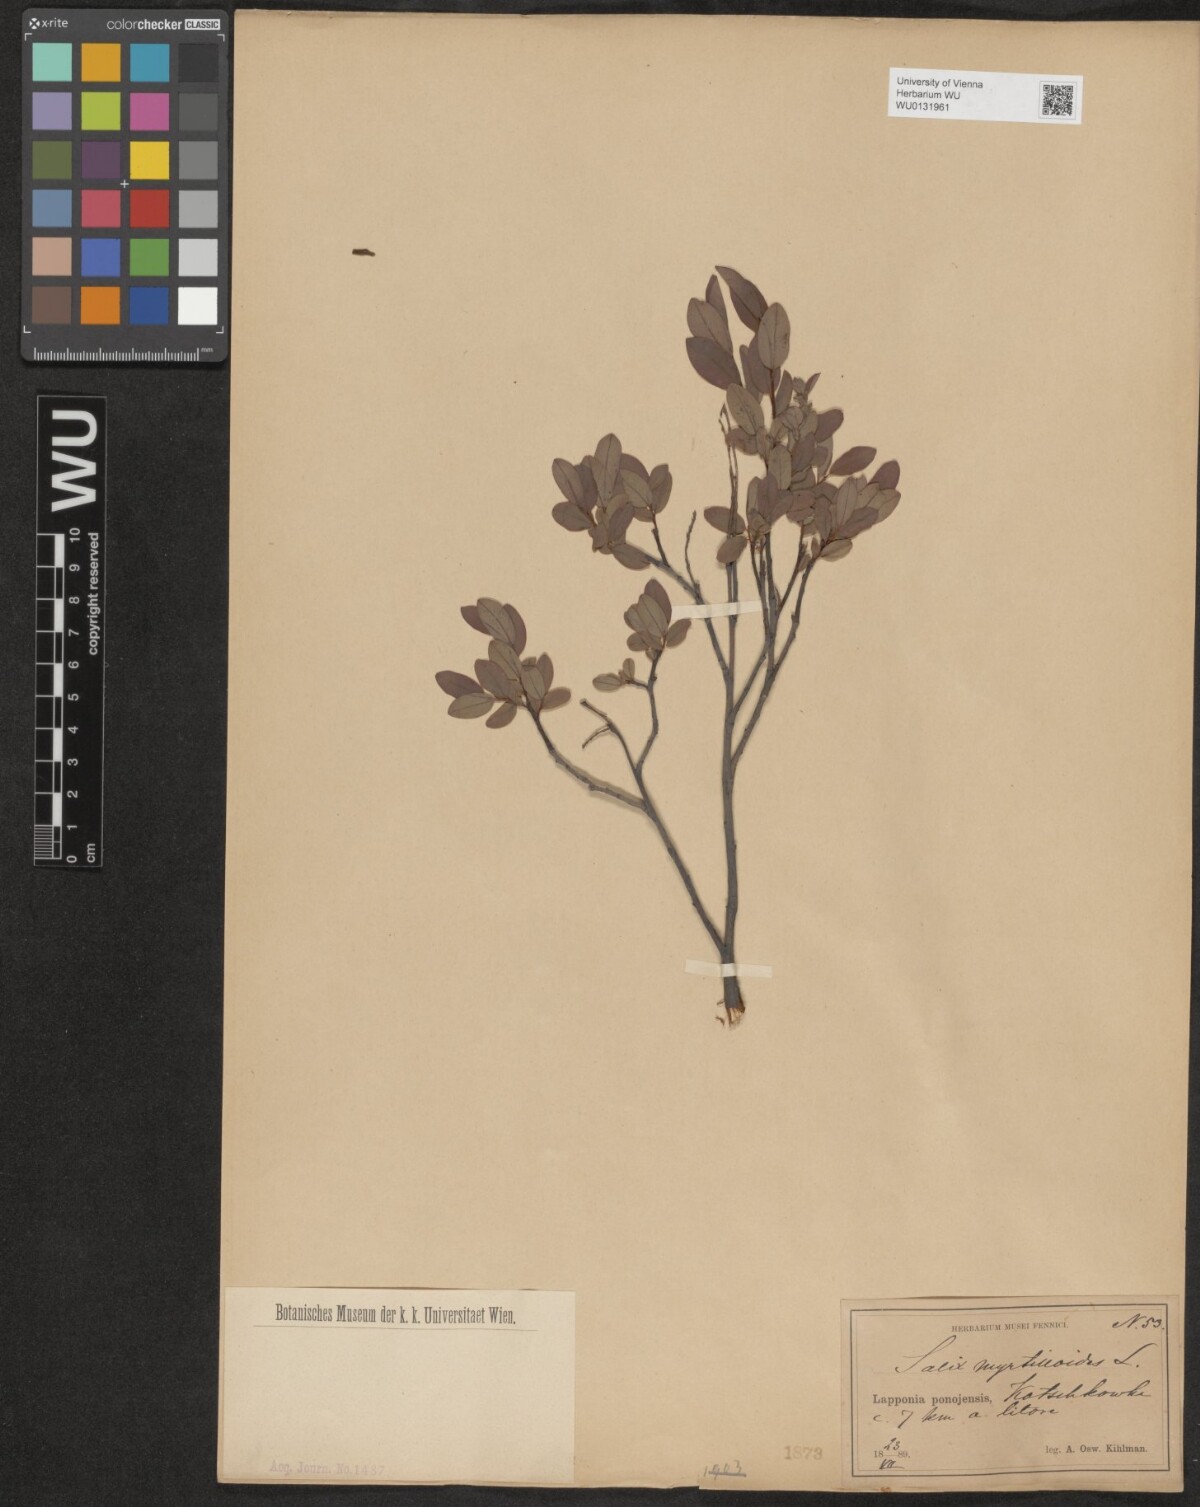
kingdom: Plantae
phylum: Tracheophyta
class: Magnoliopsida
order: Malpighiales
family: Salicaceae
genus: Salix
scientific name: Salix myrtilloides
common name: Myrtle-leaved willow
